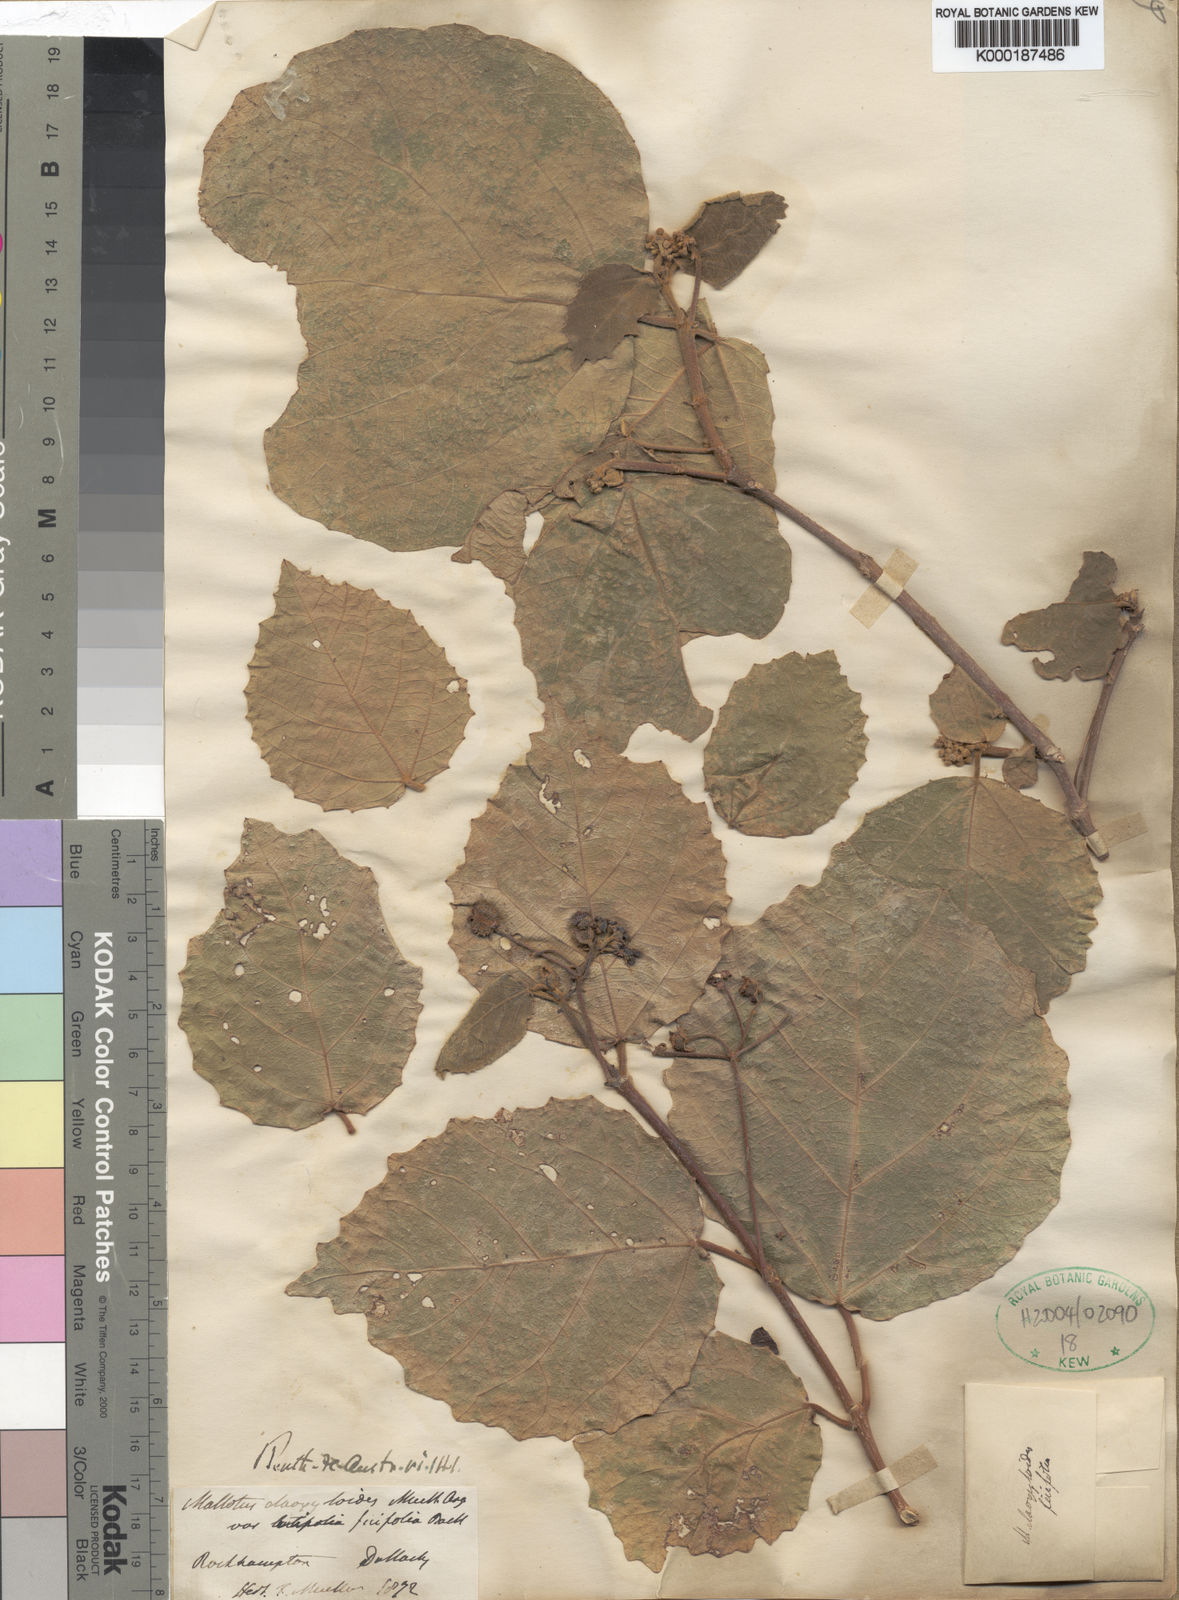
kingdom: Plantae
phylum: Tracheophyta
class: Magnoliopsida
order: Malpighiales
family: Euphorbiaceae
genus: Mallotus
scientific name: Mallotus ficifolius
